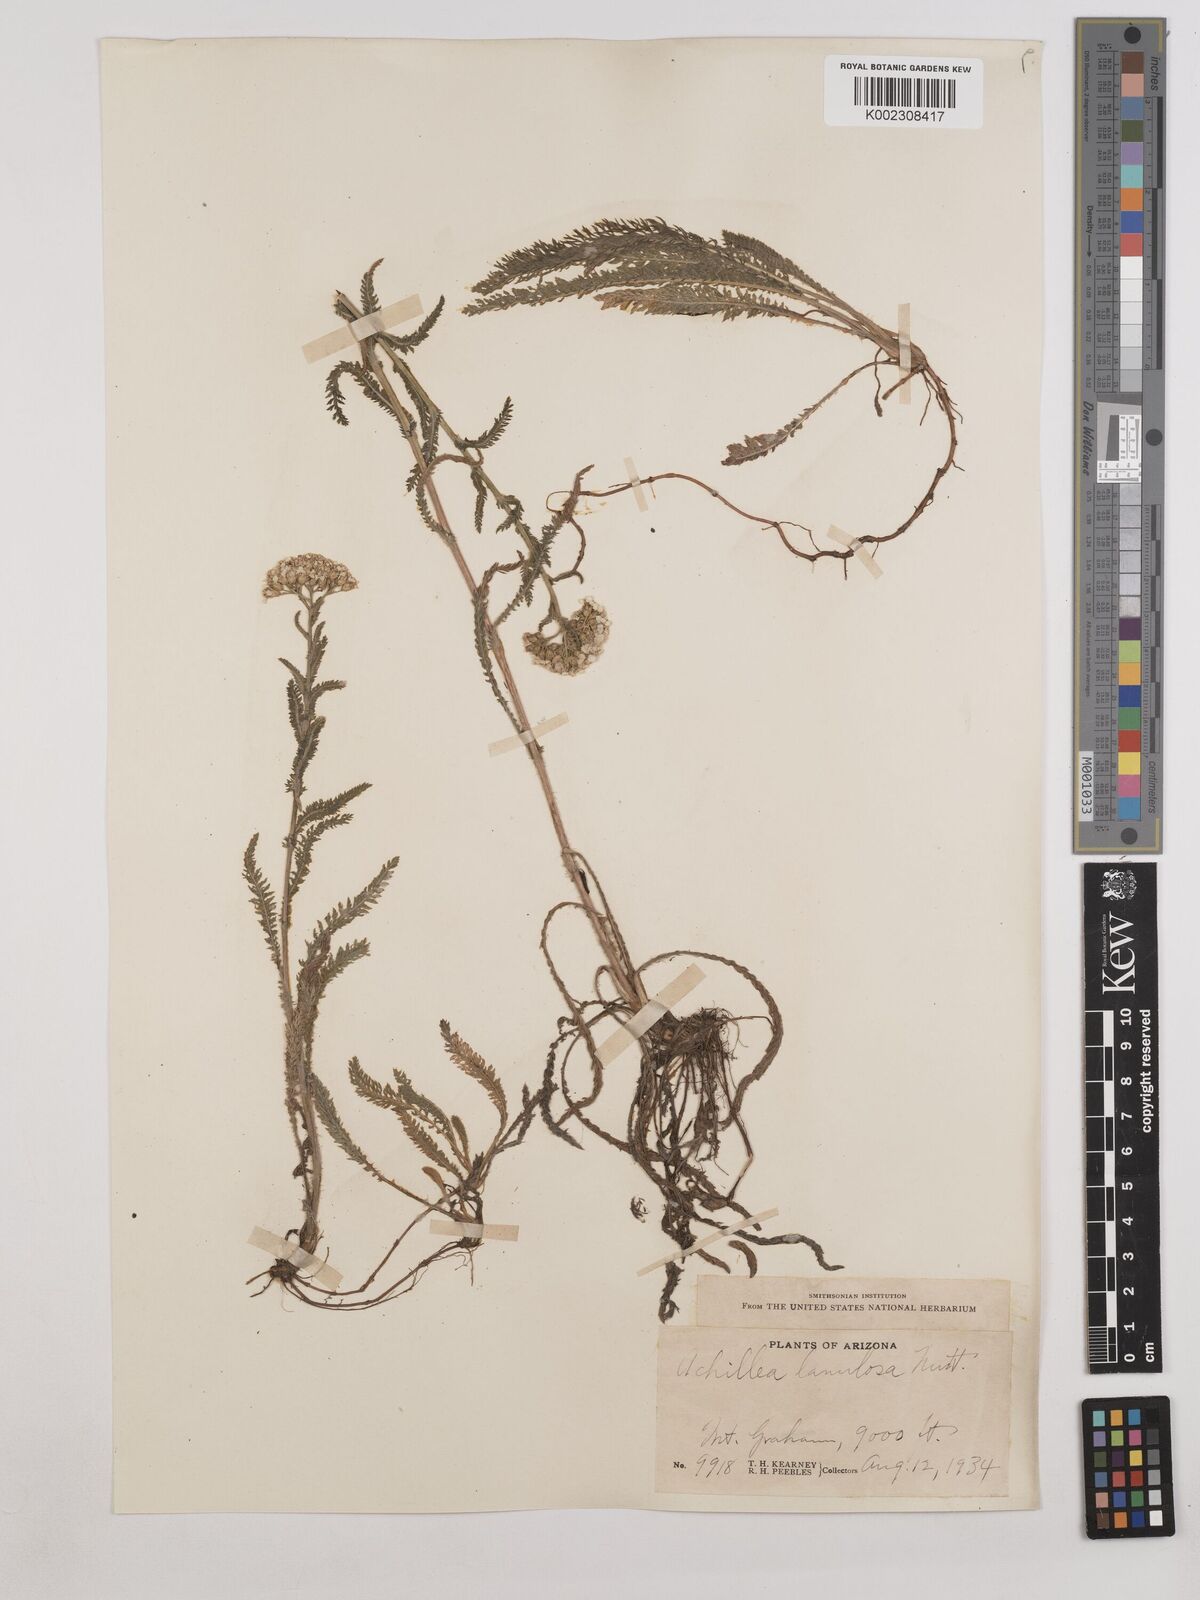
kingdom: Plantae
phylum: Tracheophyta
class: Magnoliopsida
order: Asterales
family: Asteraceae
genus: Achillea
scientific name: Achillea millefolium
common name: Yarrow
